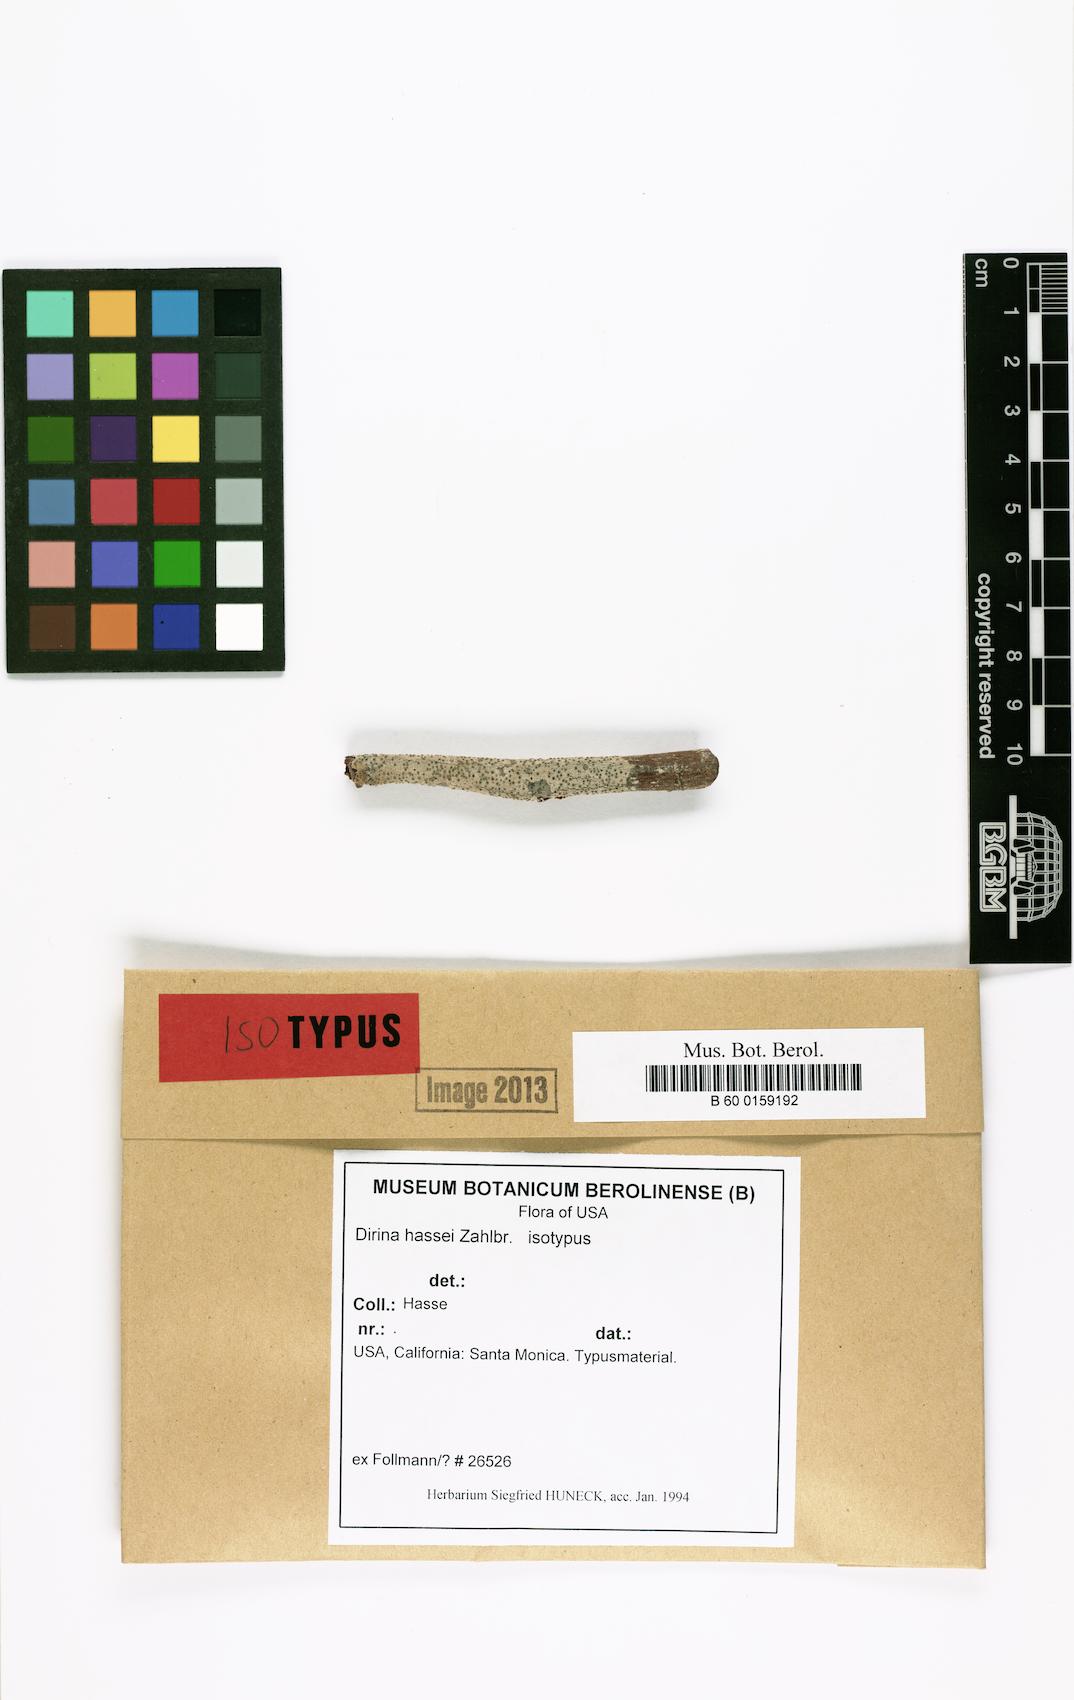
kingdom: Fungi
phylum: Ascomycota
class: Arthoniomycetes
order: Arthoniales
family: Roccellaceae
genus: Sigridea
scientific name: Sigridea californica
